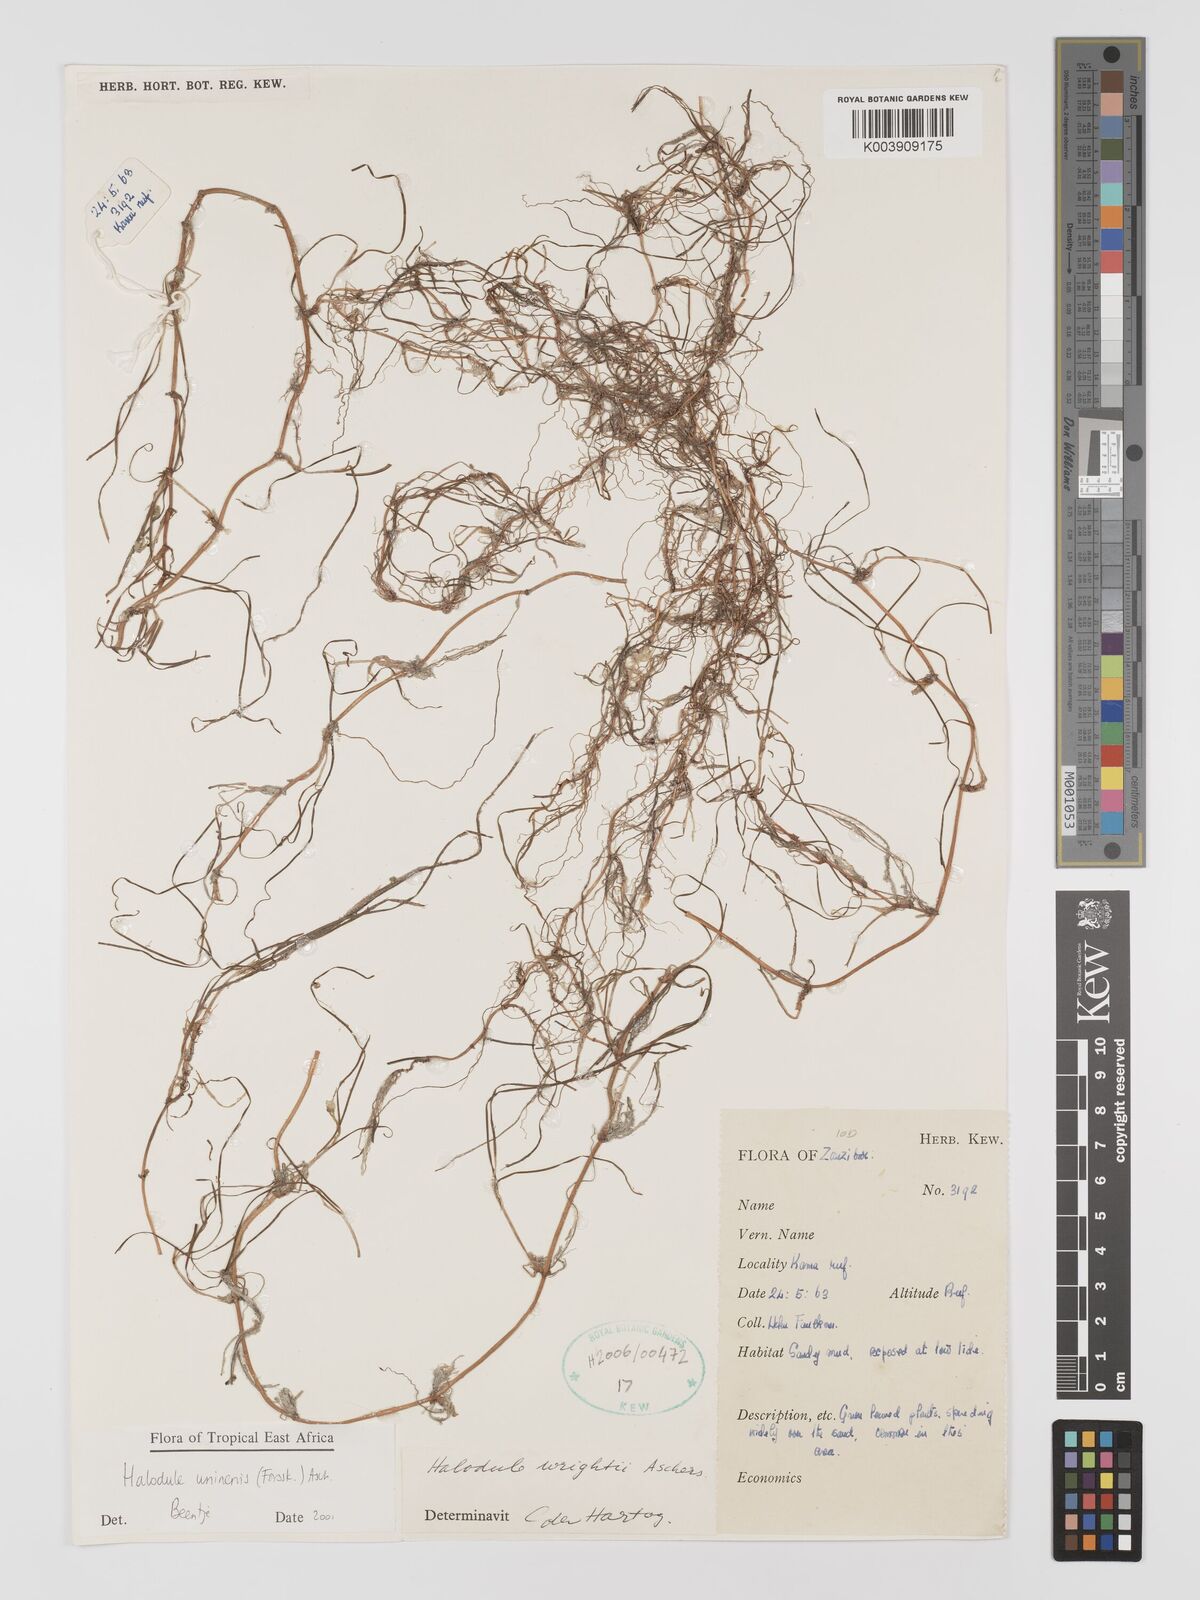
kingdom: Plantae
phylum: Tracheophyta
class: Liliopsida
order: Alismatales
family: Cymodoceaceae
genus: Halodule
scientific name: Halodule uninervis
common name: Narrowleaf seagrass
